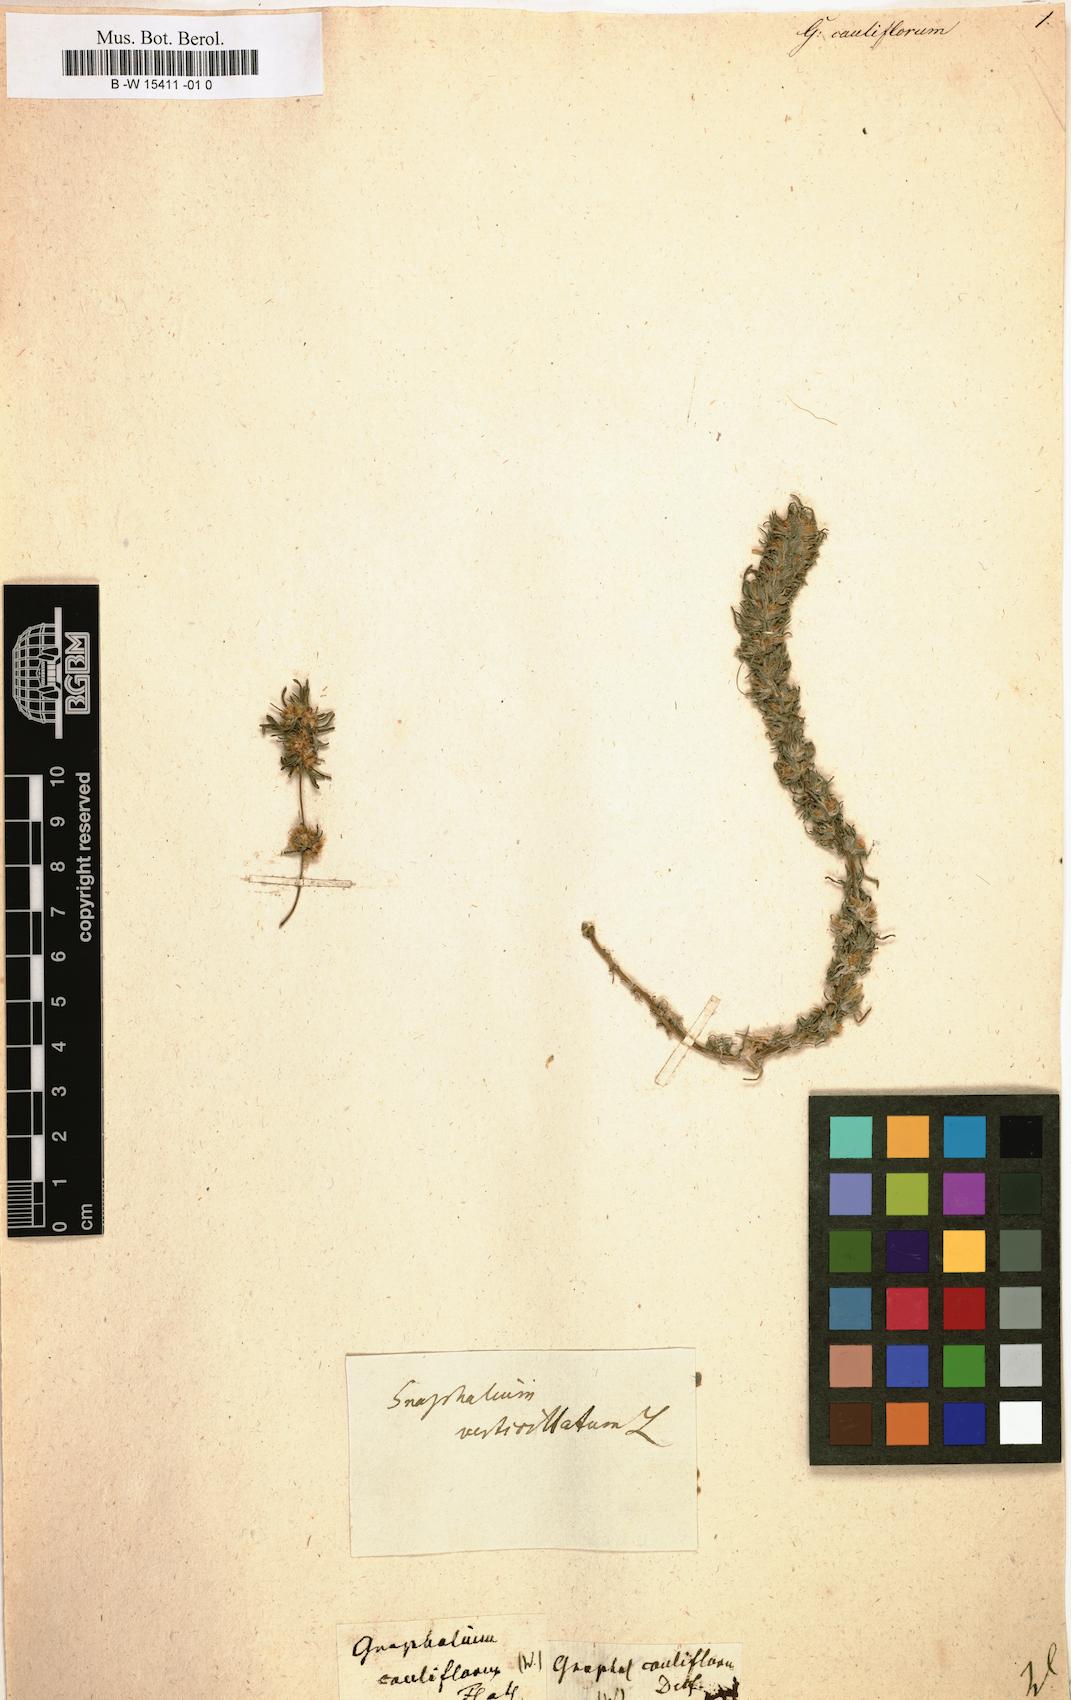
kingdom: Plantae
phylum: Tracheophyta
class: Magnoliopsida
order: Asterales
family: Asteraceae
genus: Ifloga
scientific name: Ifloga spicata
